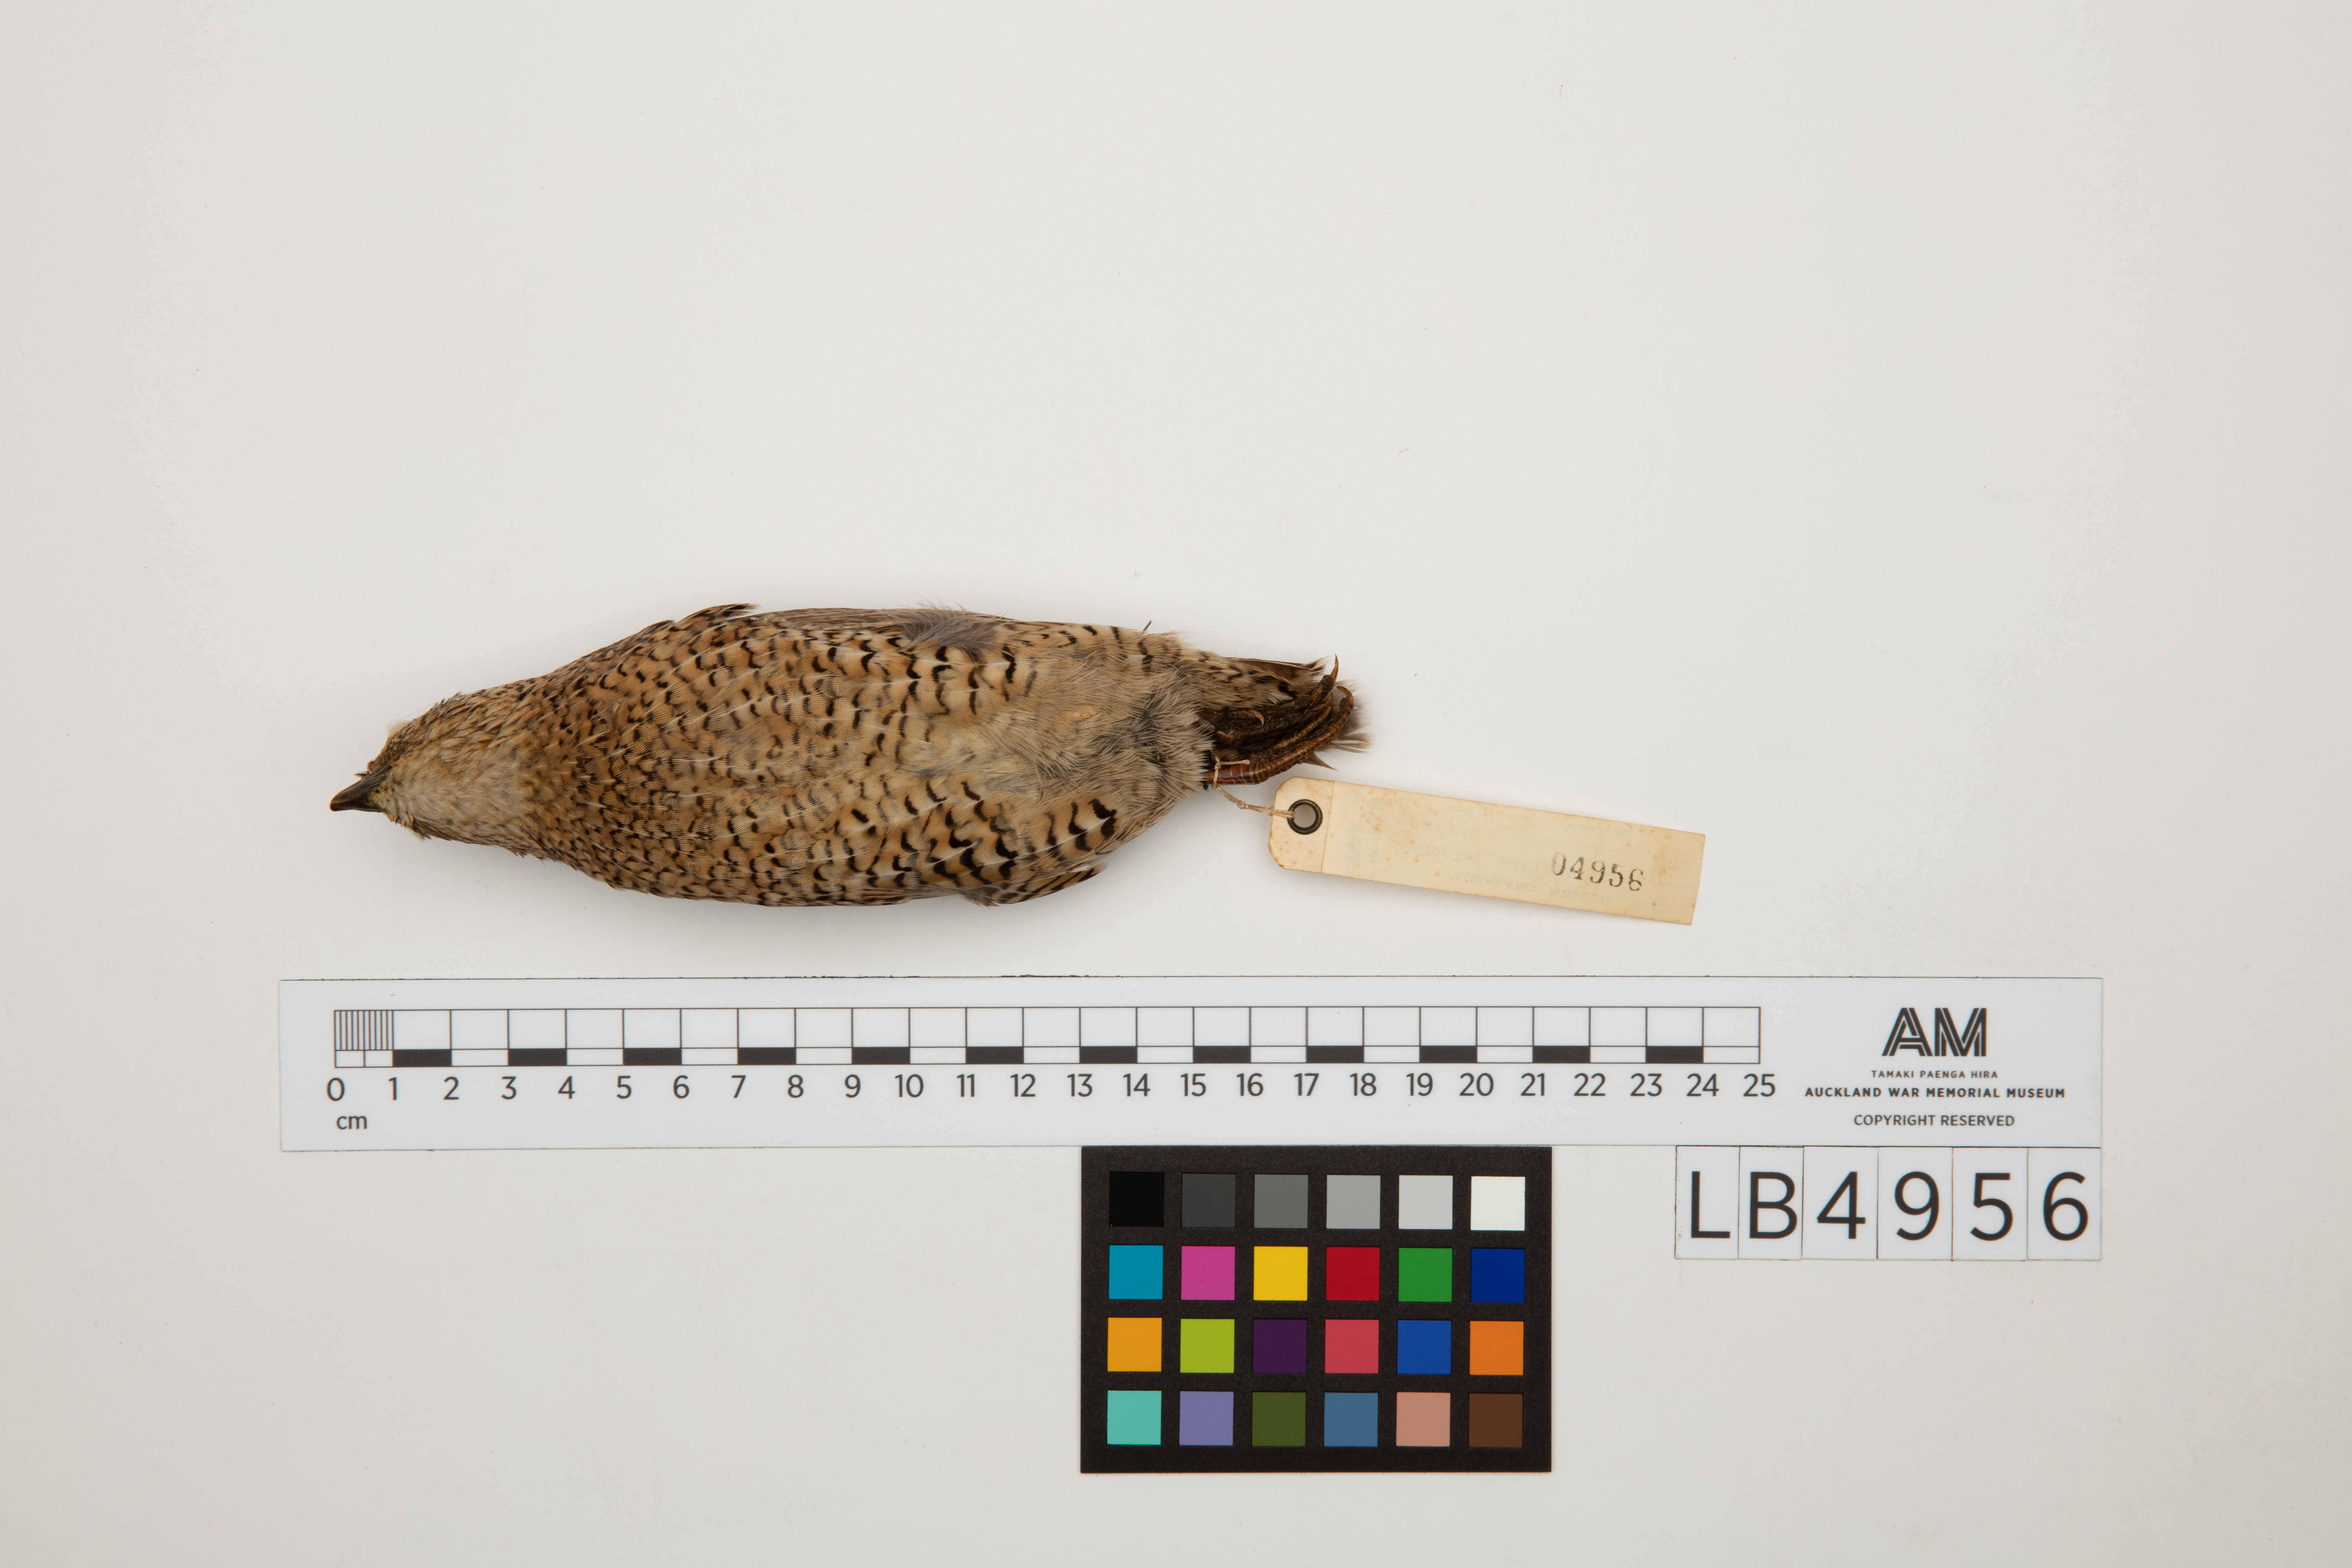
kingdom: Animalia
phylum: Chordata
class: Aves
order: Galliformes
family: Phasianidae
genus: Synoicus
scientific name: Synoicus ypsilophorus
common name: Brown quail
